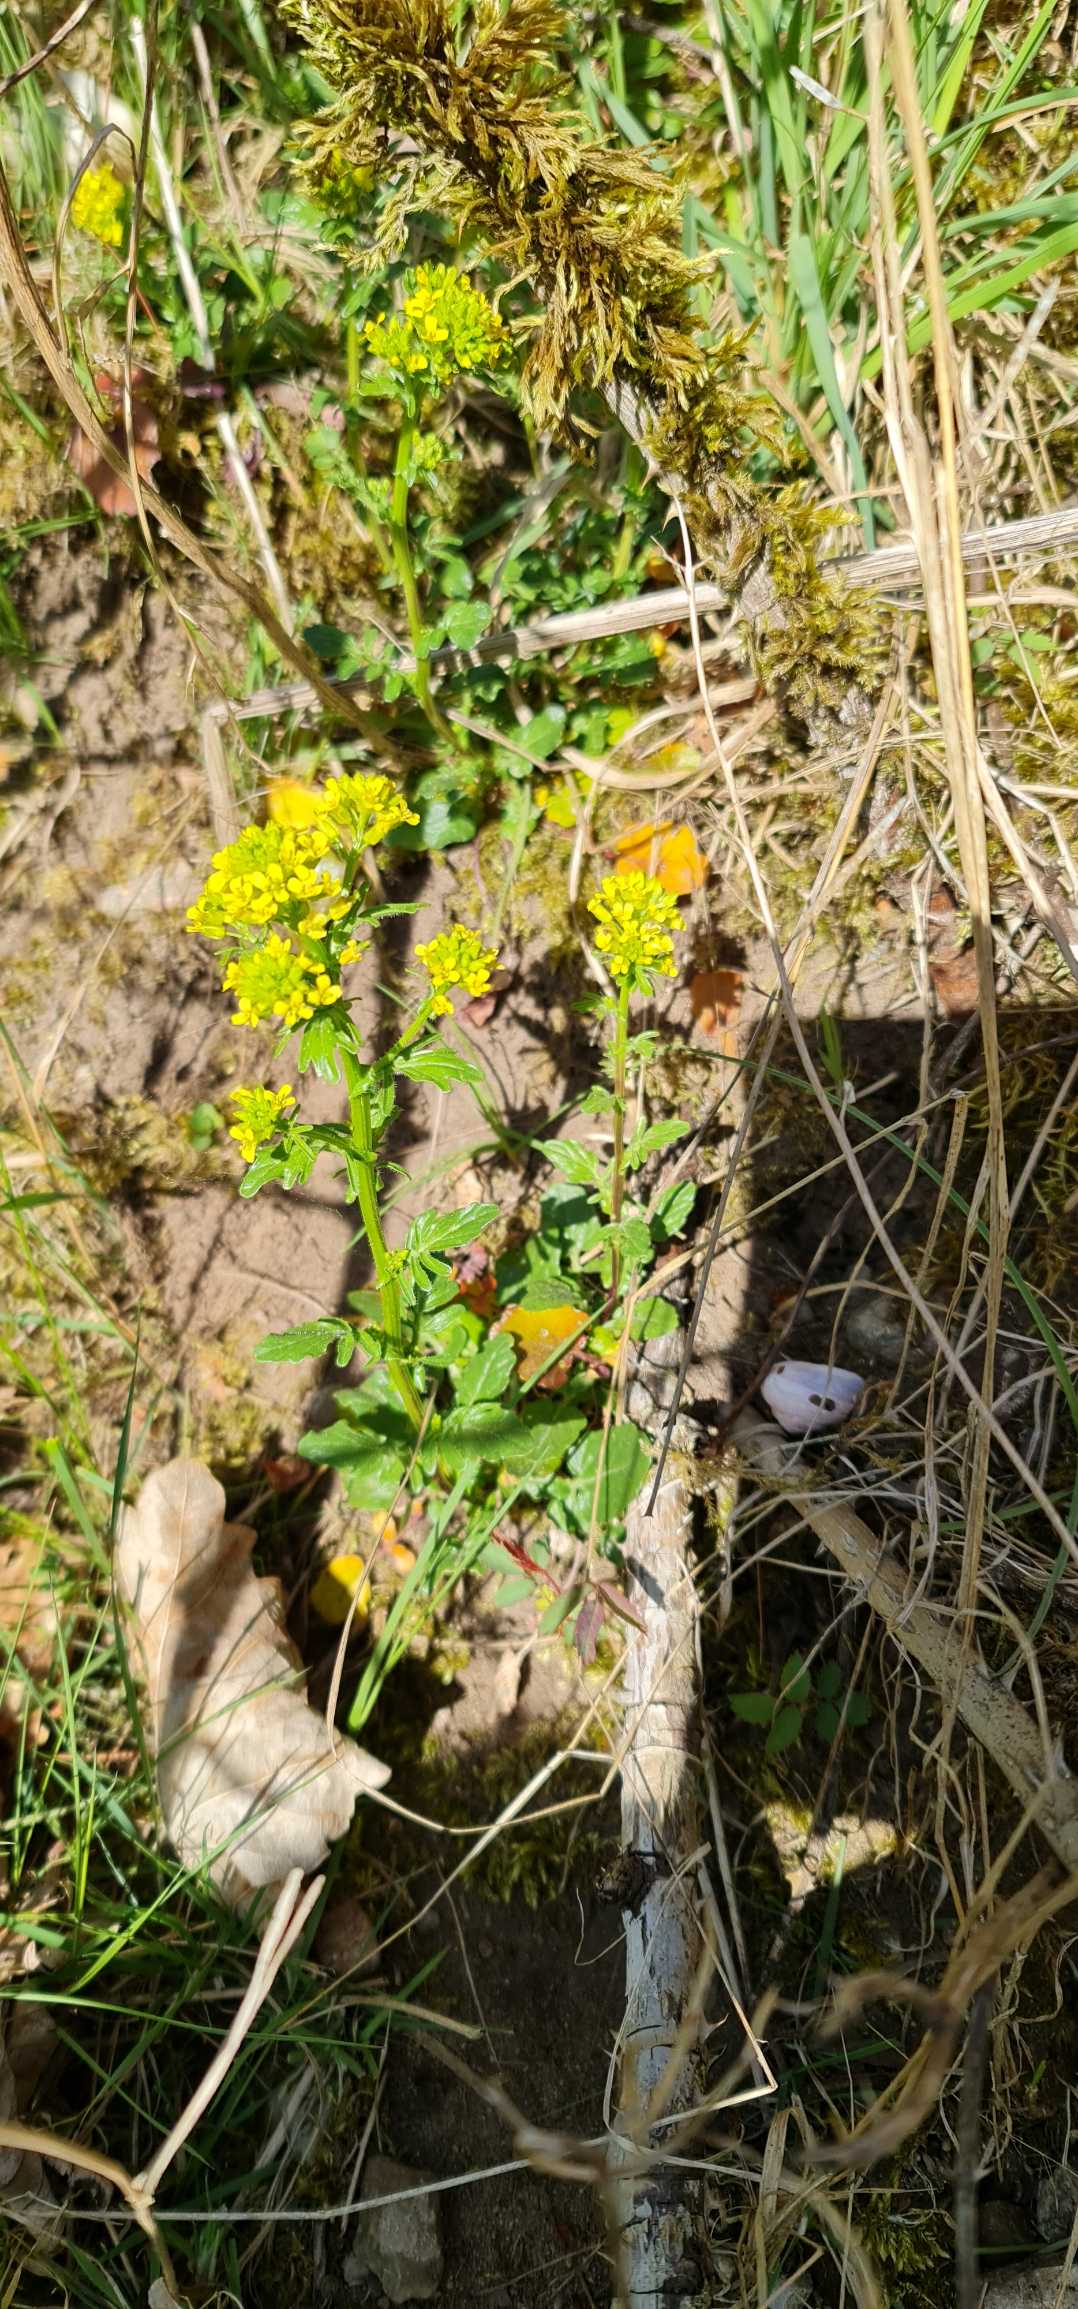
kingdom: Plantae
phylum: Tracheophyta
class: Magnoliopsida
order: Brassicales
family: Brassicaceae
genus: Barbarea
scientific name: Barbarea vulgaris
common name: Almindelig vinterkarse
